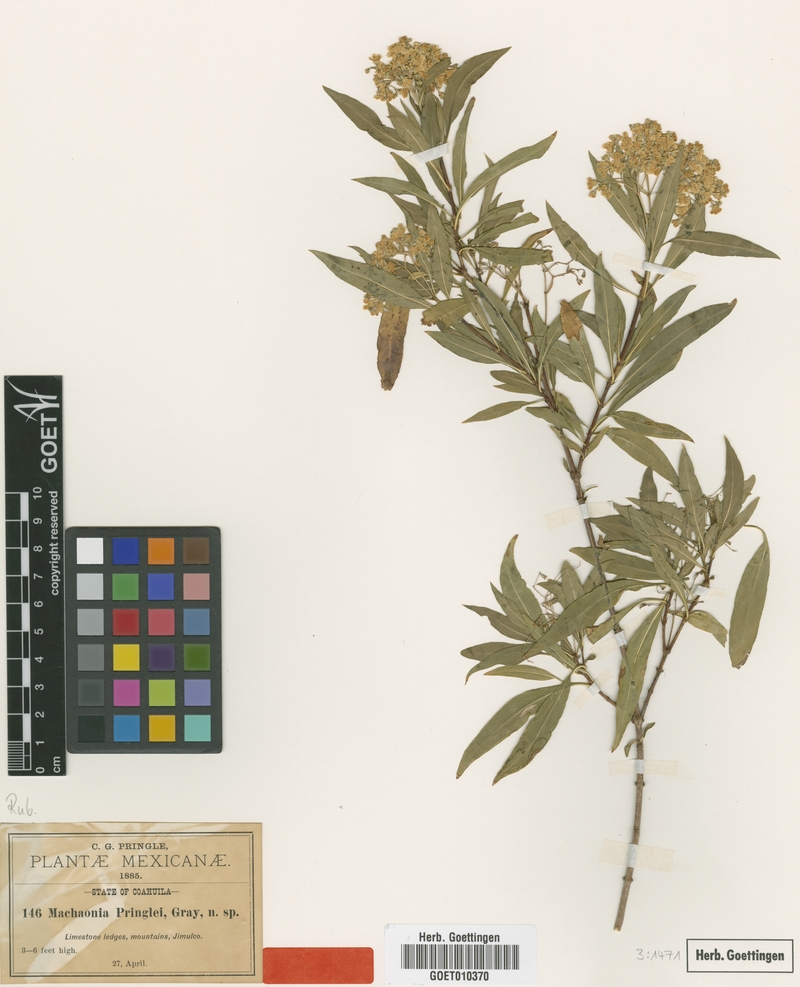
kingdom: Plantae
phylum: Tracheophyta
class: Magnoliopsida
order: Gentianales
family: Rubiaceae
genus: Machaonia
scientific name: Machaonia pringlei
